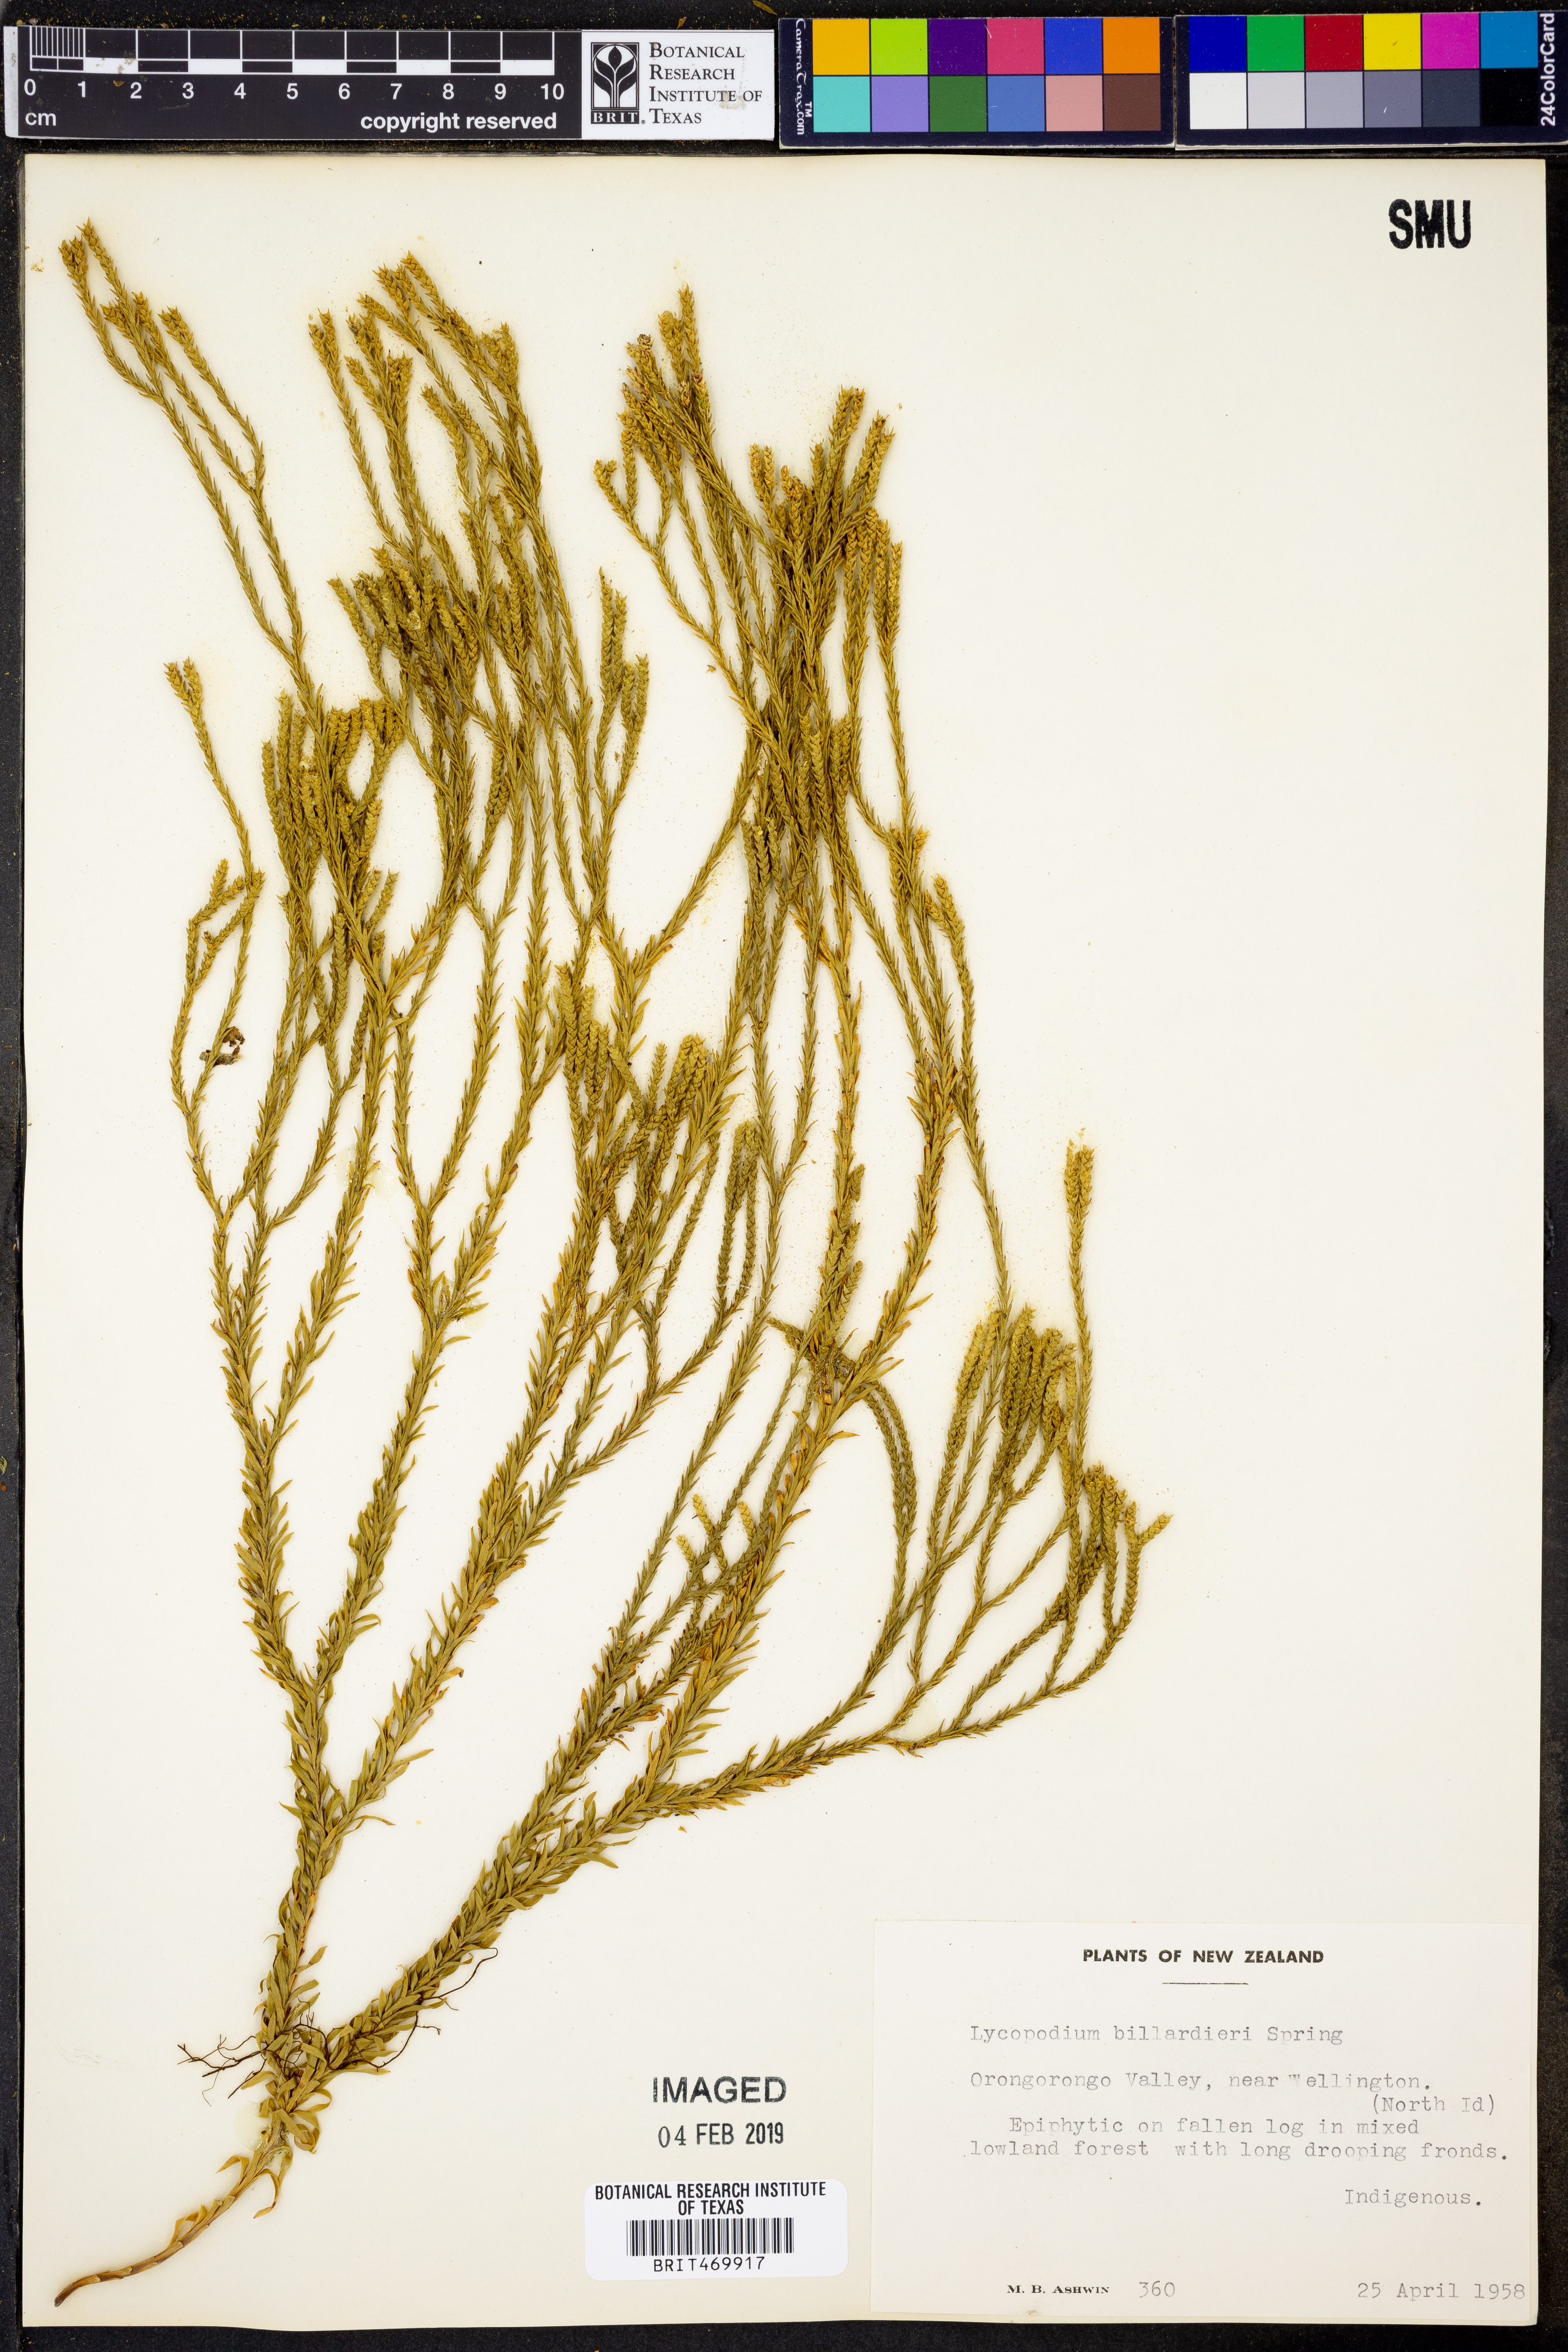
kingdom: Plantae
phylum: Tracheophyta
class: Lycopodiopsida
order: Lycopodiales
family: Lycopodiaceae
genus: Phlegmariurus
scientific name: Phlegmariurus billardierei
